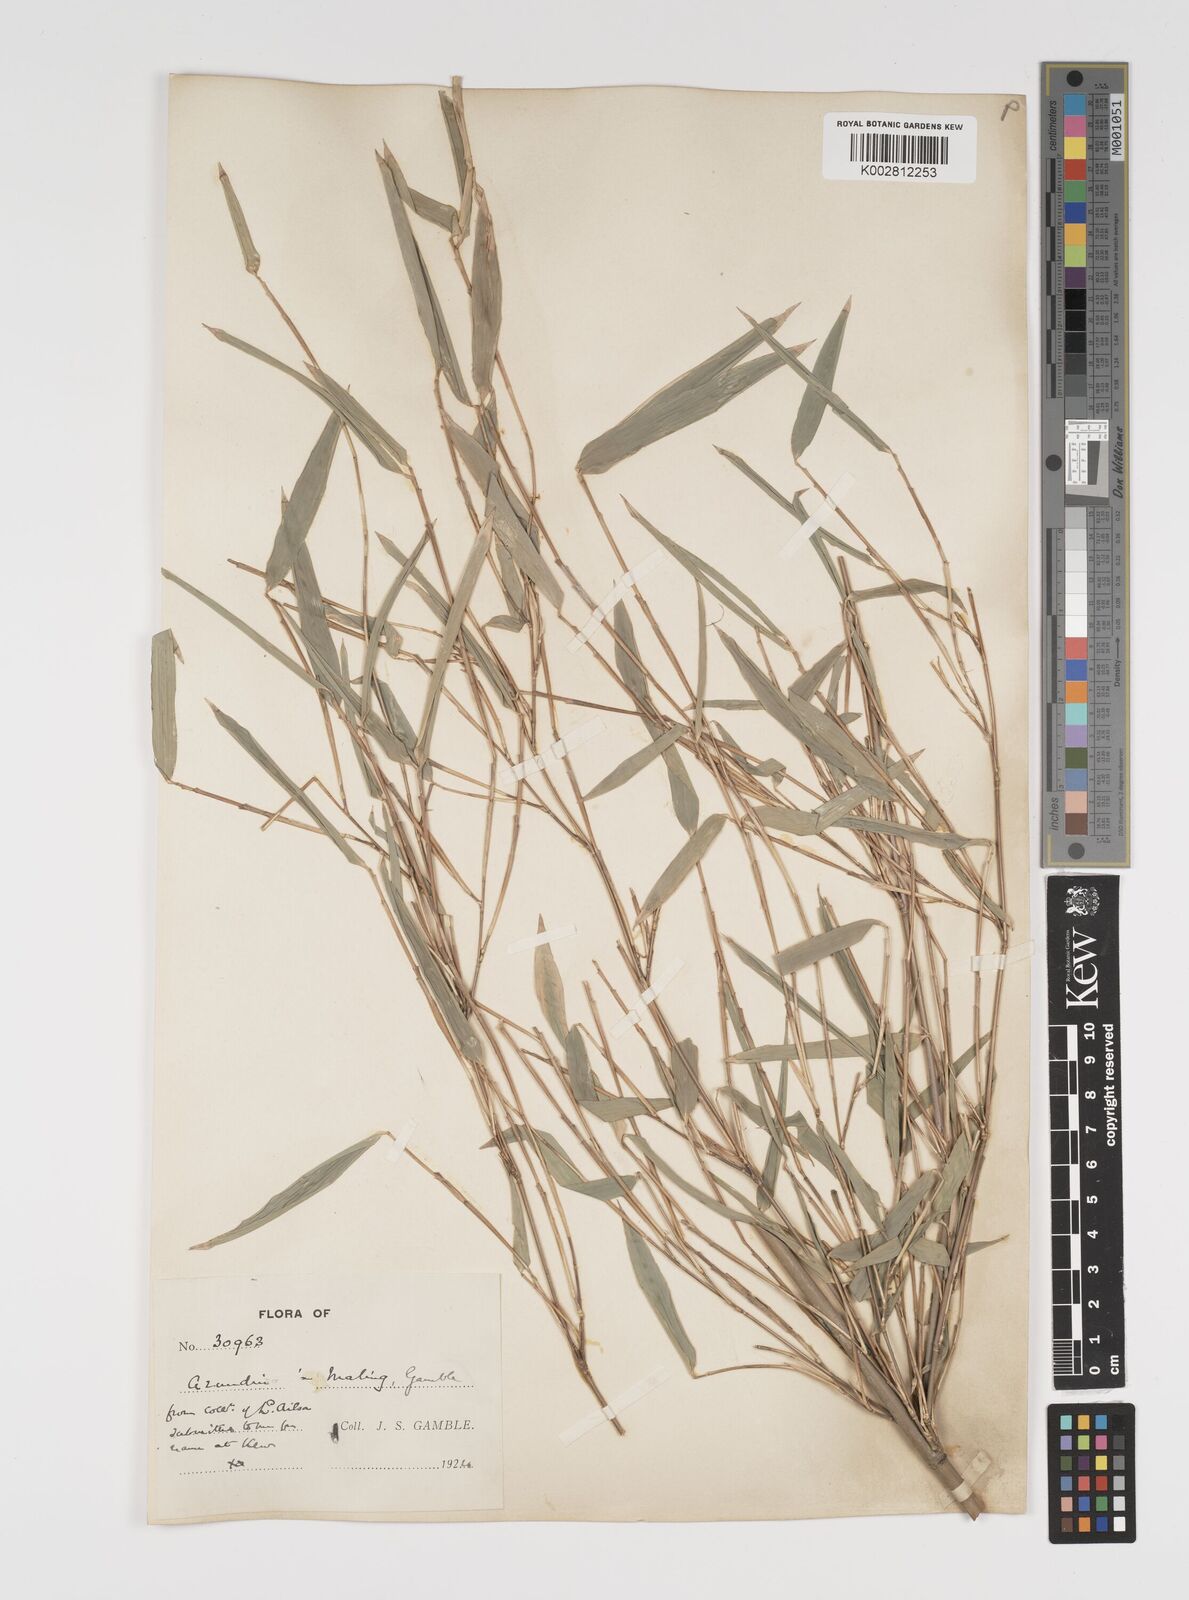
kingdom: Plantae
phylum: Tracheophyta
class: Liliopsida
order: Poales
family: Poaceae
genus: Yushania
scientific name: Yushania maling
